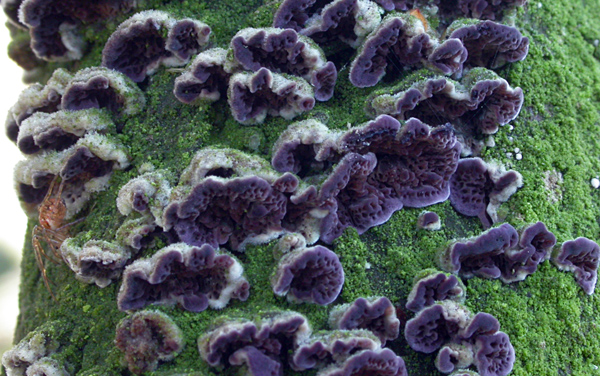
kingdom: Fungi
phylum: Basidiomycota
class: Agaricomycetes
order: Hymenochaetales
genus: Trichaptum
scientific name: Trichaptum abietinum
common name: almindelig violporesvamp
